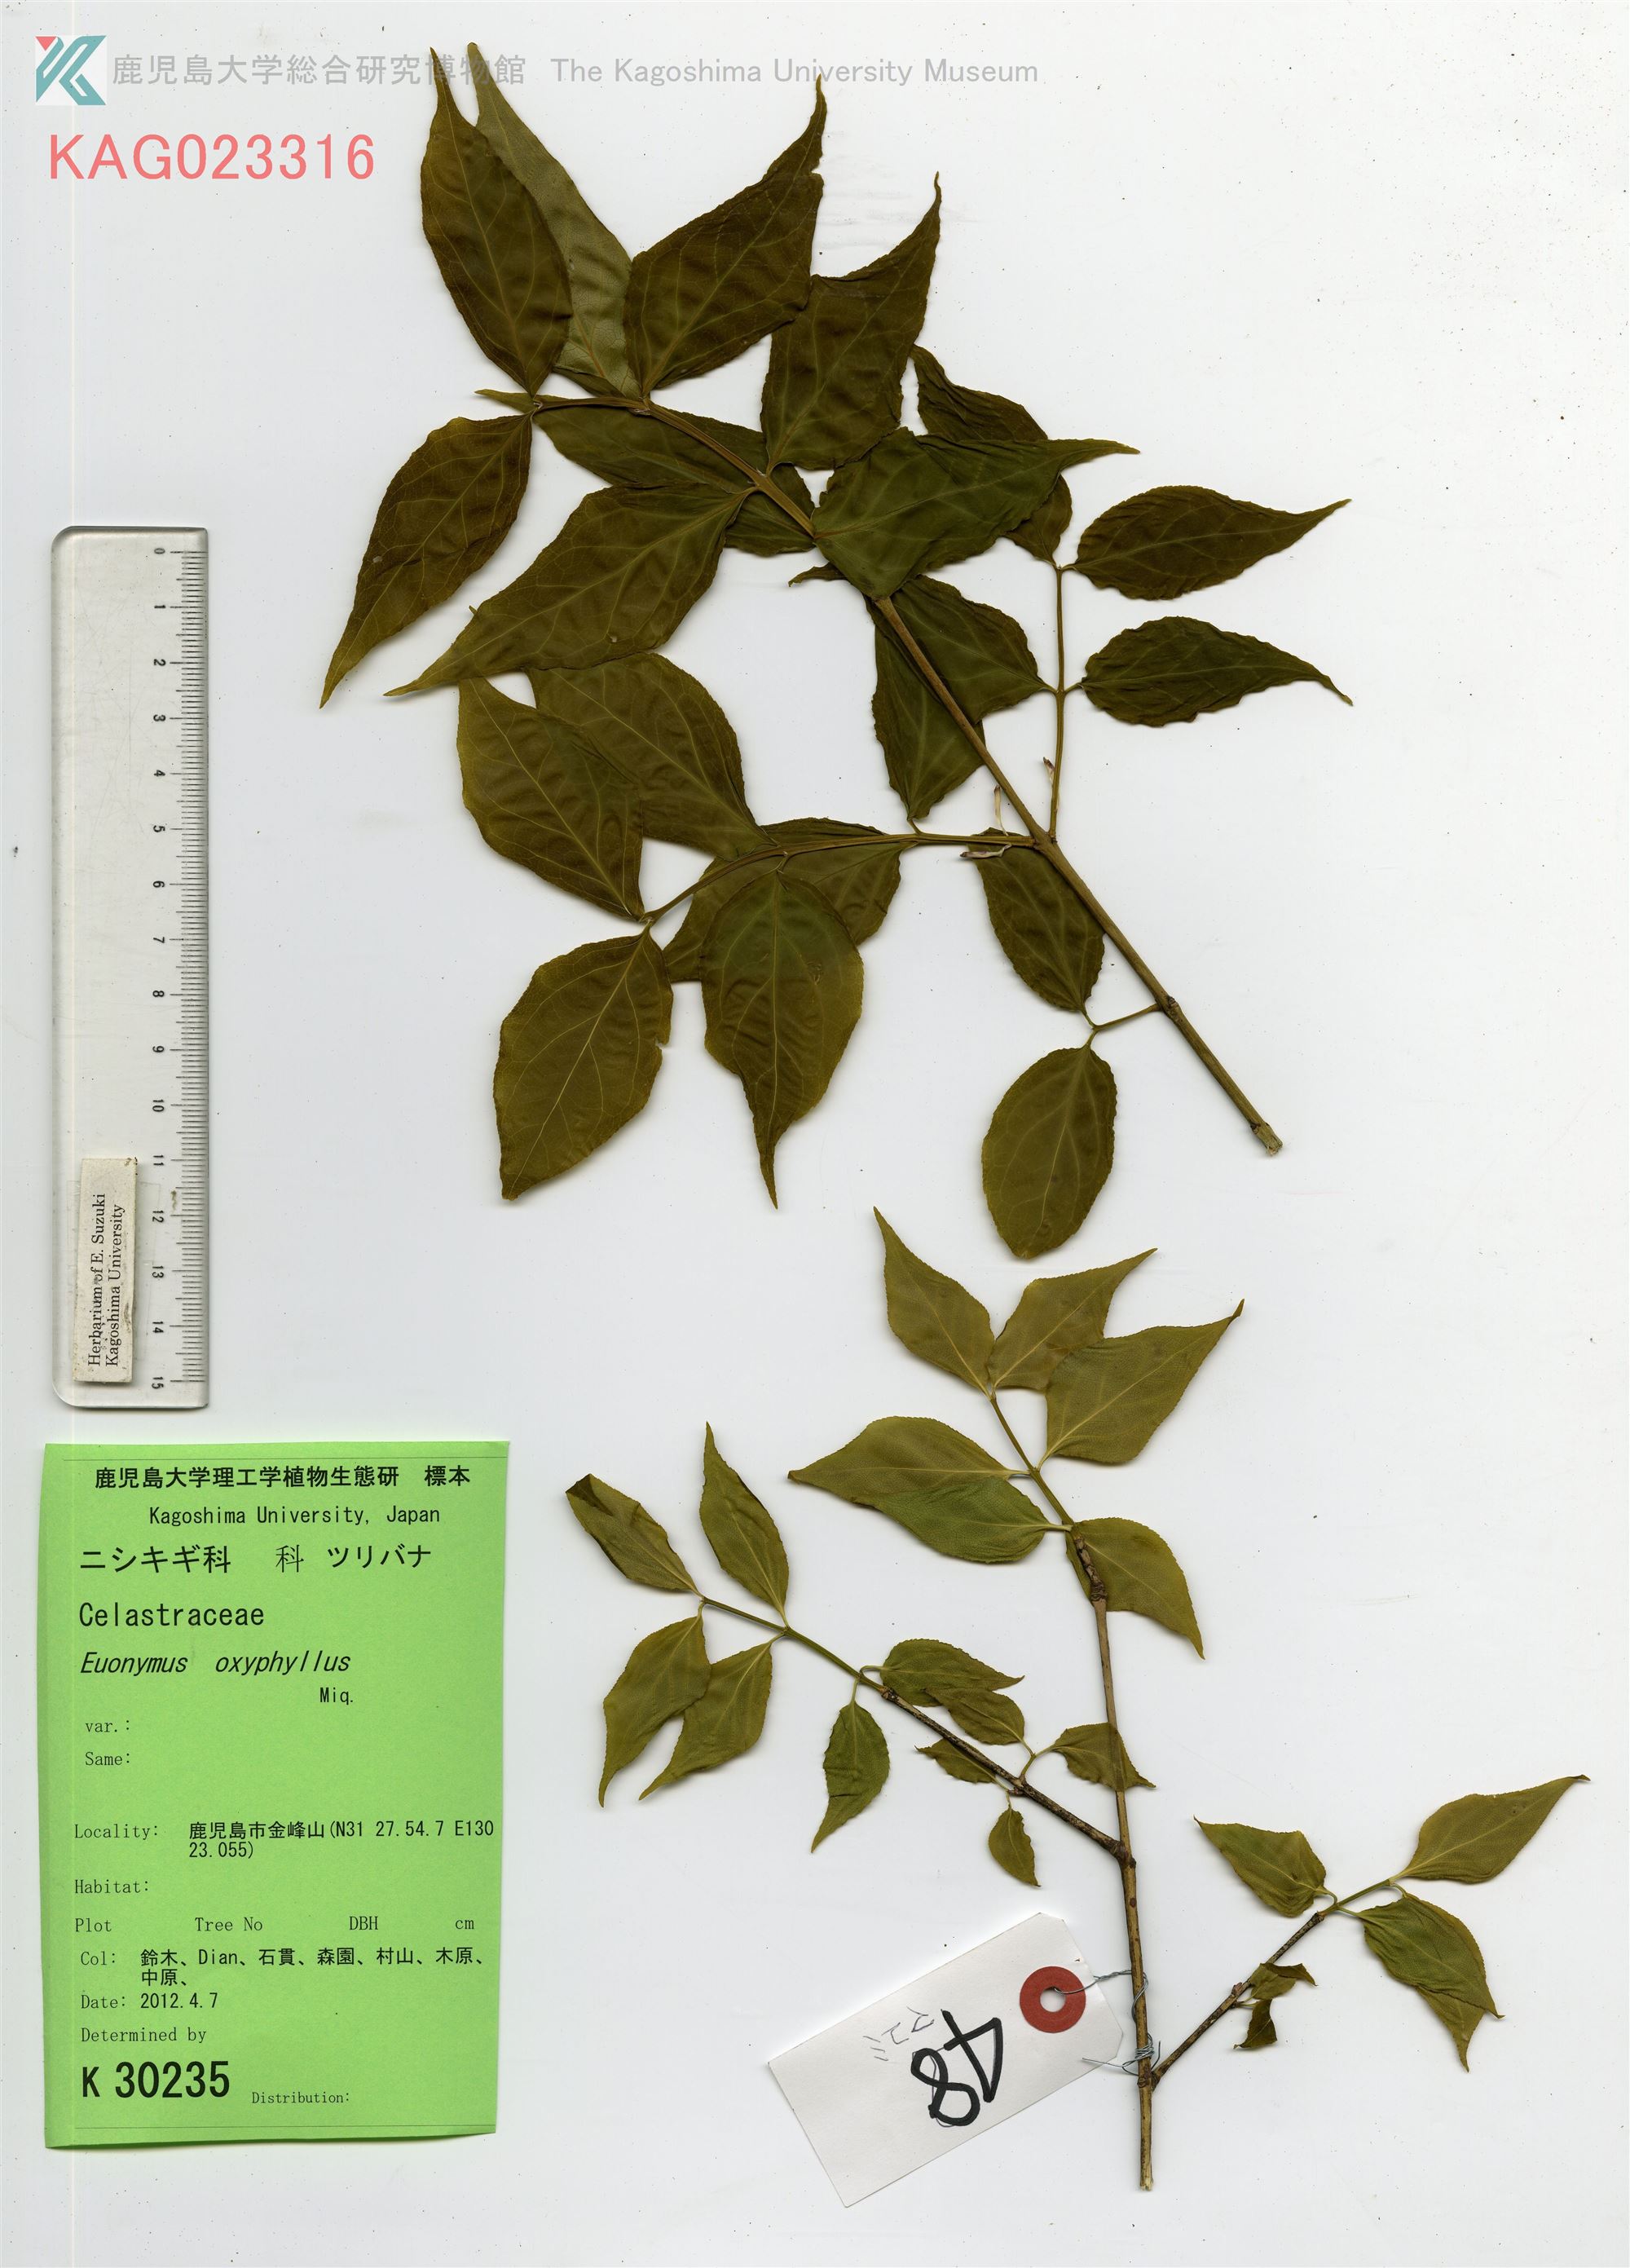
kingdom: Plantae
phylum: Tracheophyta
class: Magnoliopsida
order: Celastrales
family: Celastraceae
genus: Euonymus
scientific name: Euonymus oxyphyllus
